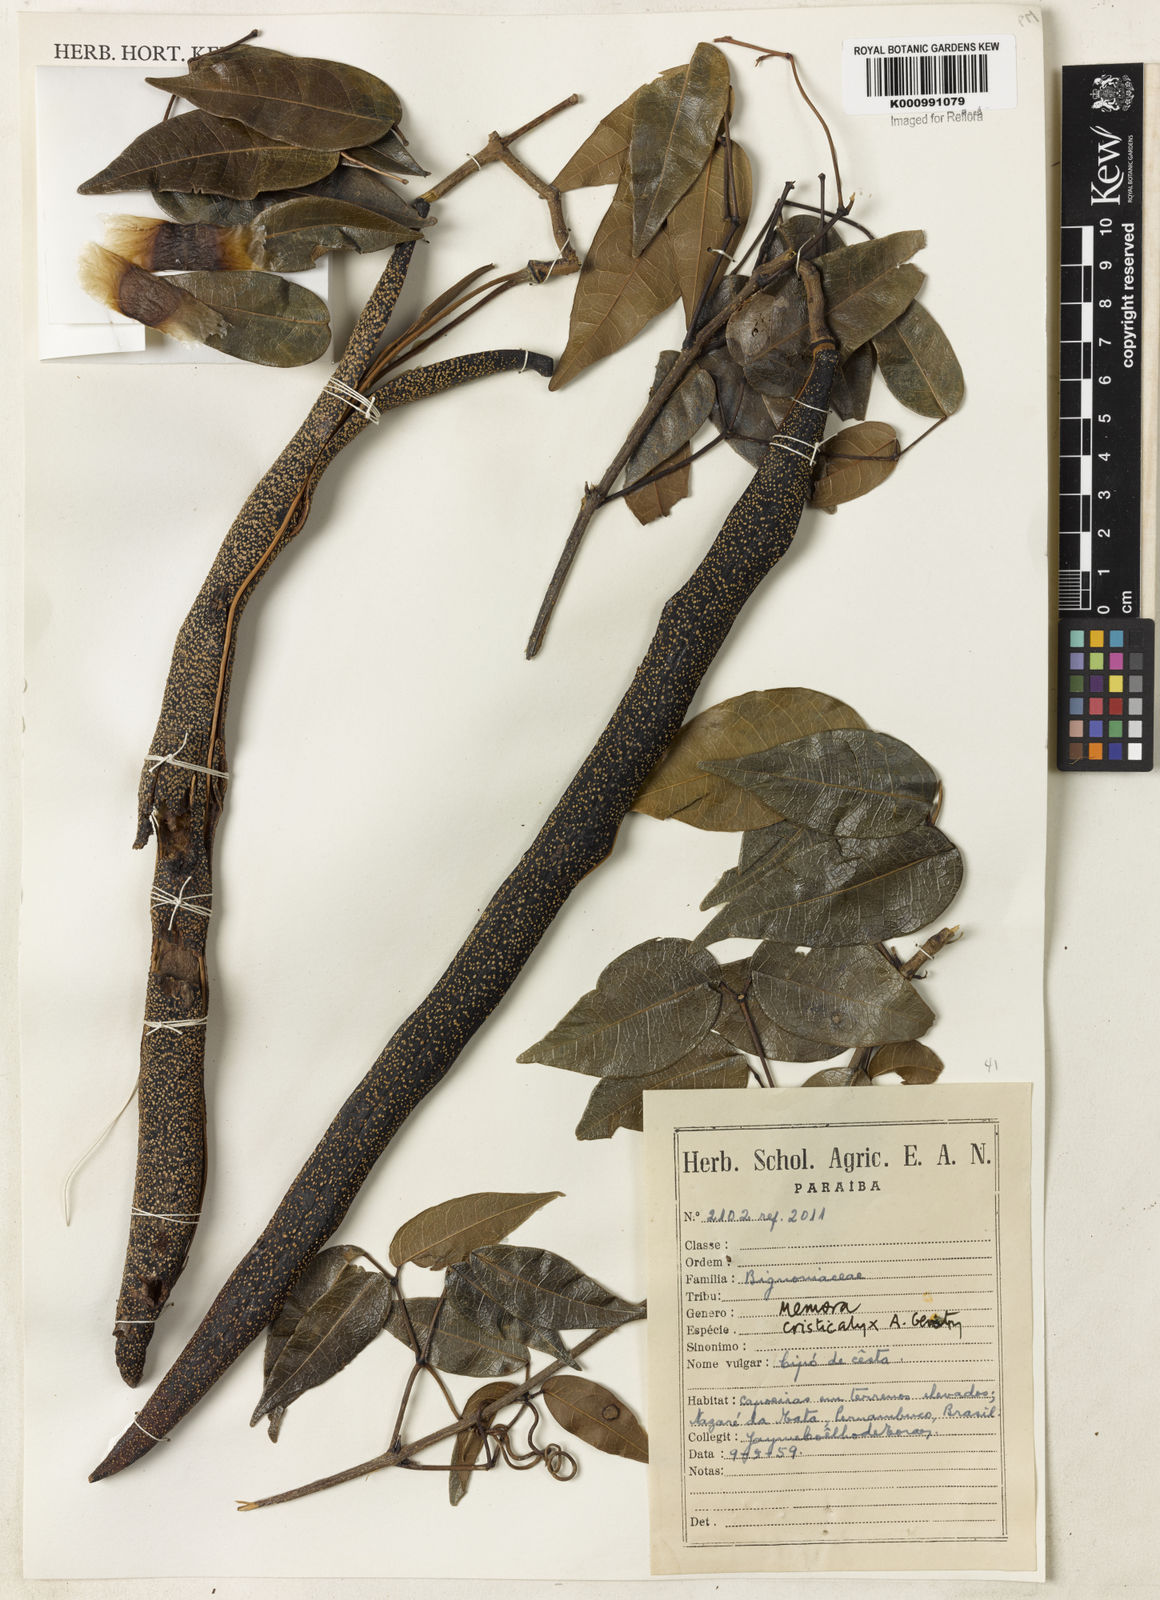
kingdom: Plantae
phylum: Tracheophyta
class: Magnoliopsida
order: Lamiales
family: Bignoniaceae
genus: Adenocalymma
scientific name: Adenocalymma cristicalyx
